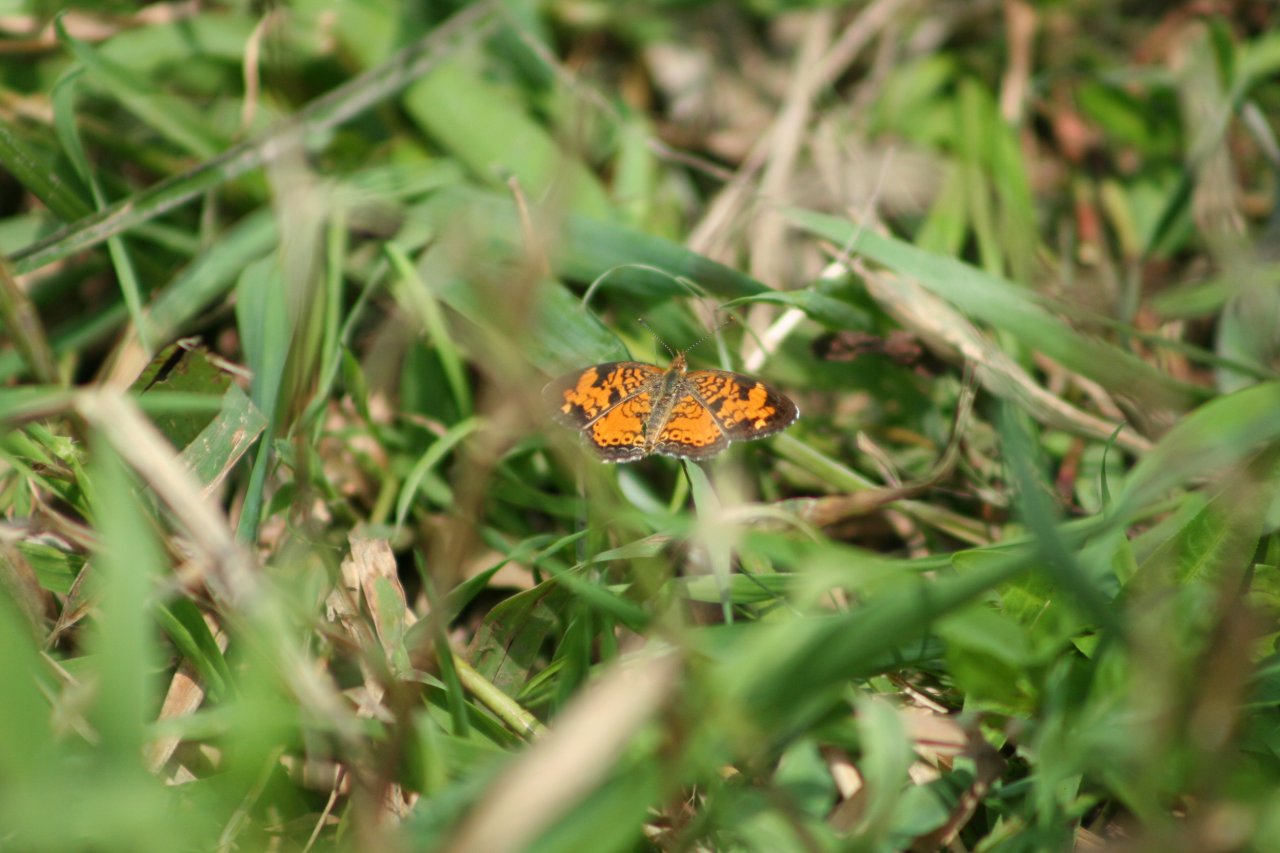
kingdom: Animalia
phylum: Arthropoda
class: Insecta
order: Lepidoptera
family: Nymphalidae
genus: Phyciodes
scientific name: Phyciodes
